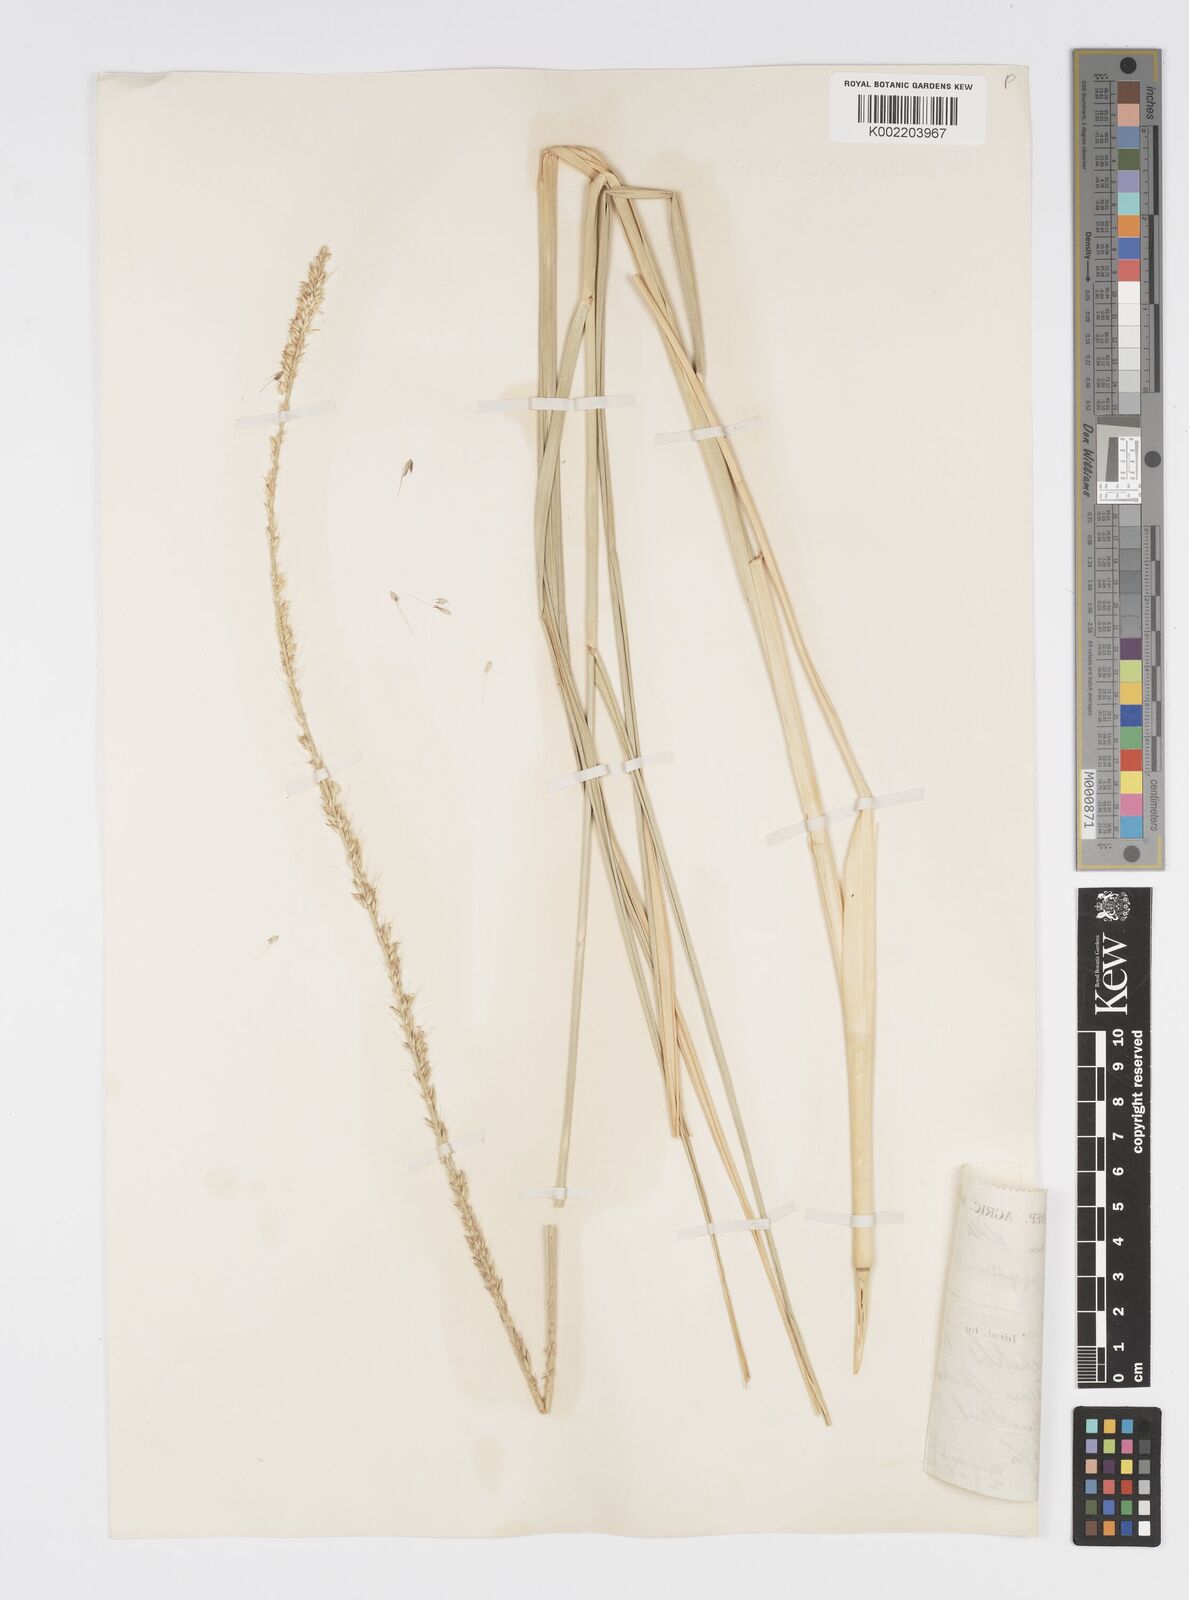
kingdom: Plantae
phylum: Tracheophyta
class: Liliopsida
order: Poales
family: Poaceae
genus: Cenchrus
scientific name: Cenchrus caudatus
